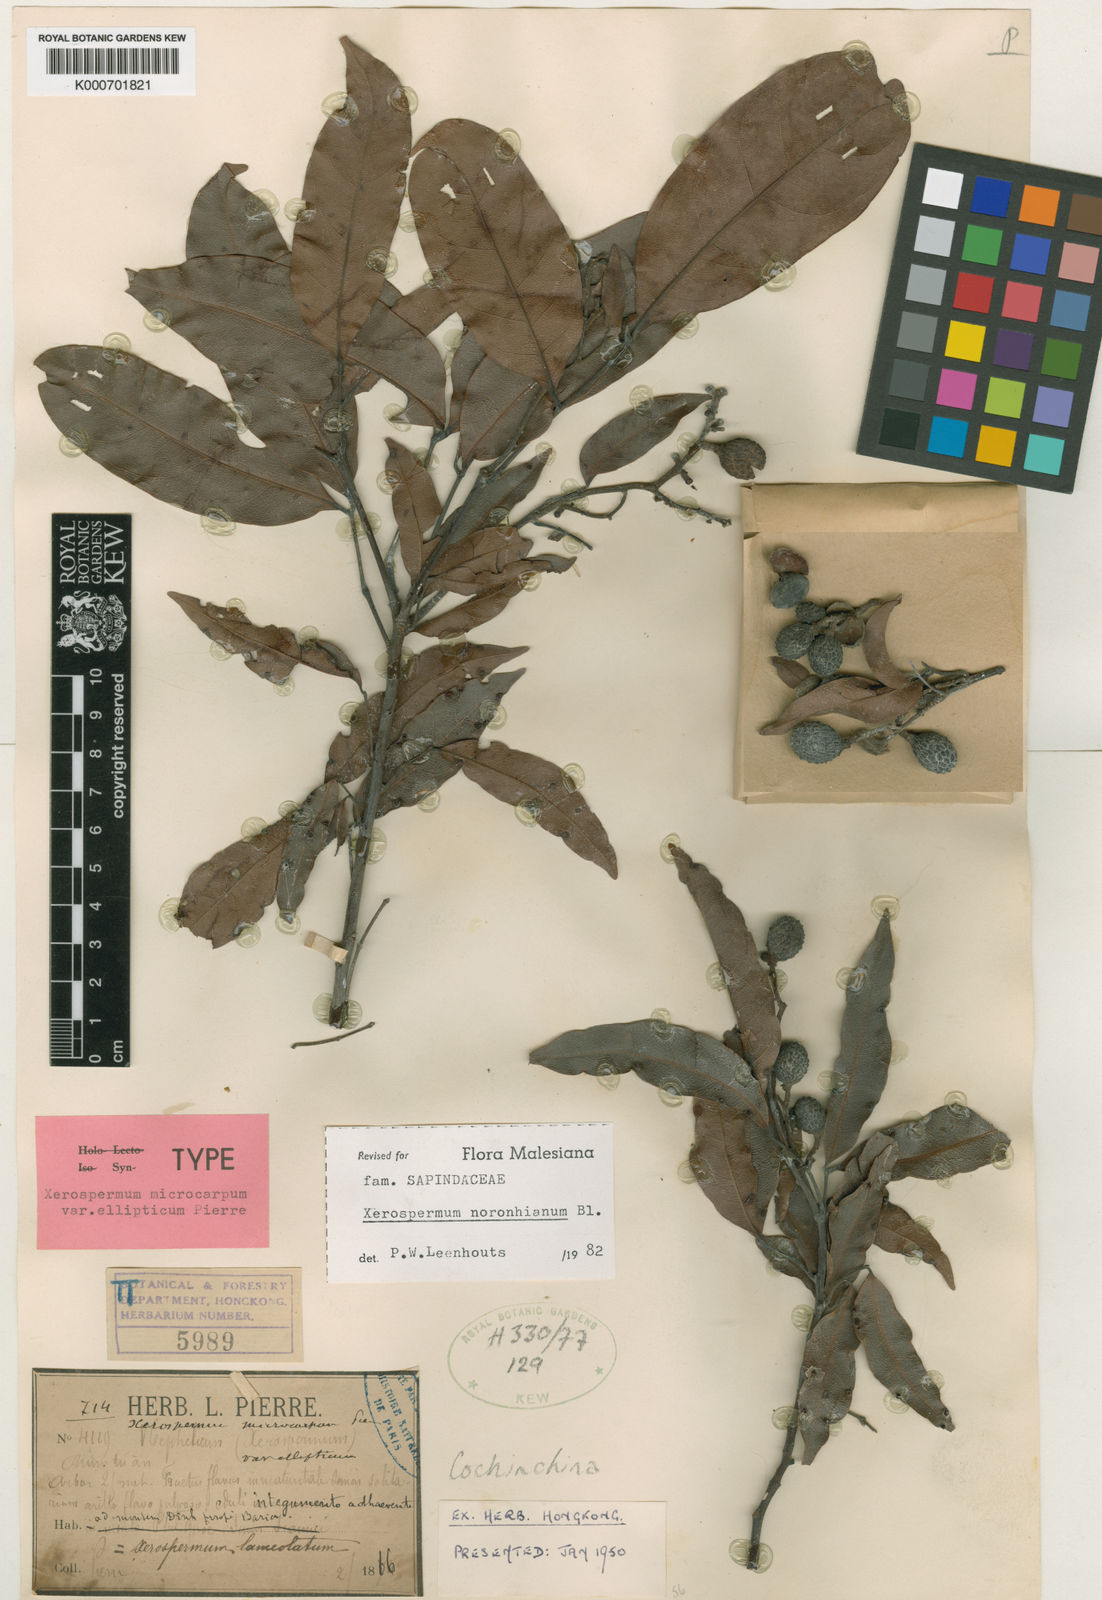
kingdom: Plantae
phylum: Tracheophyta
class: Magnoliopsida
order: Sapindales
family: Sapindaceae
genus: Xerospermum
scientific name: Xerospermum noronhianum
